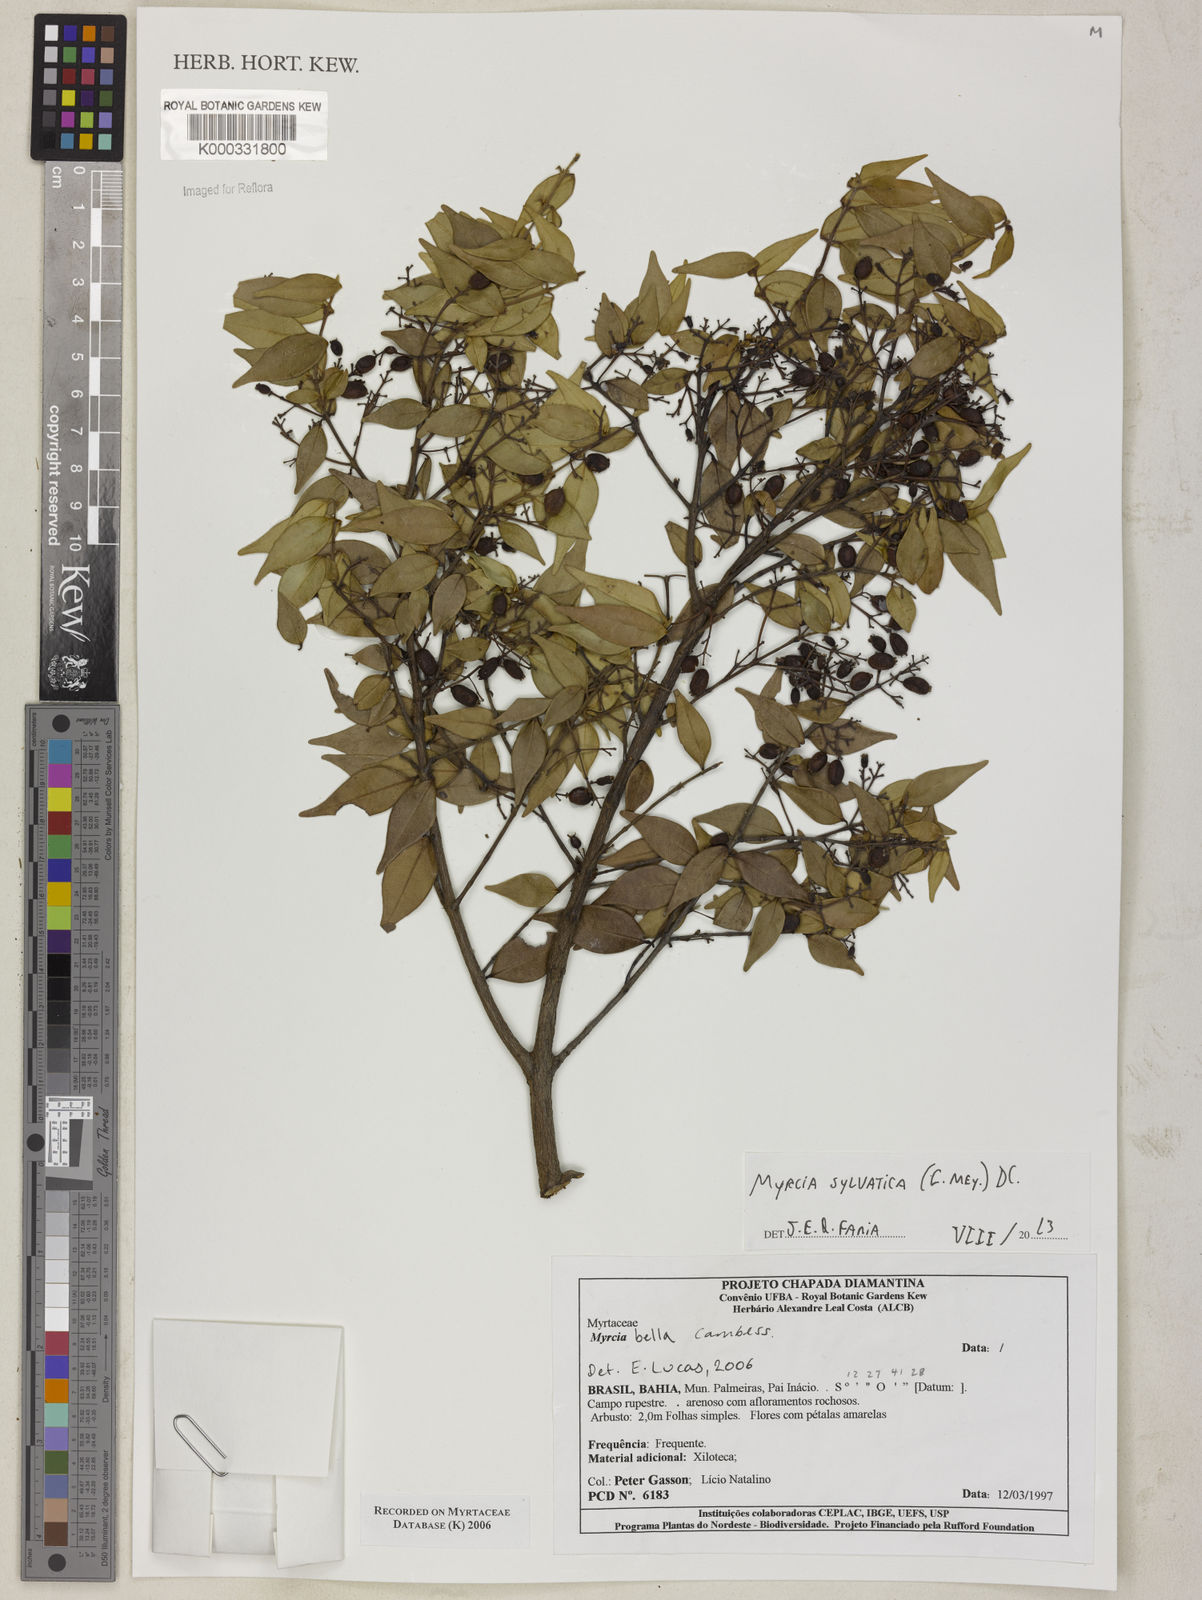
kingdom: Plantae
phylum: Tracheophyta
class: Magnoliopsida
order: Myrtales
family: Myrtaceae
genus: Myrcia
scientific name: Myrcia bella
